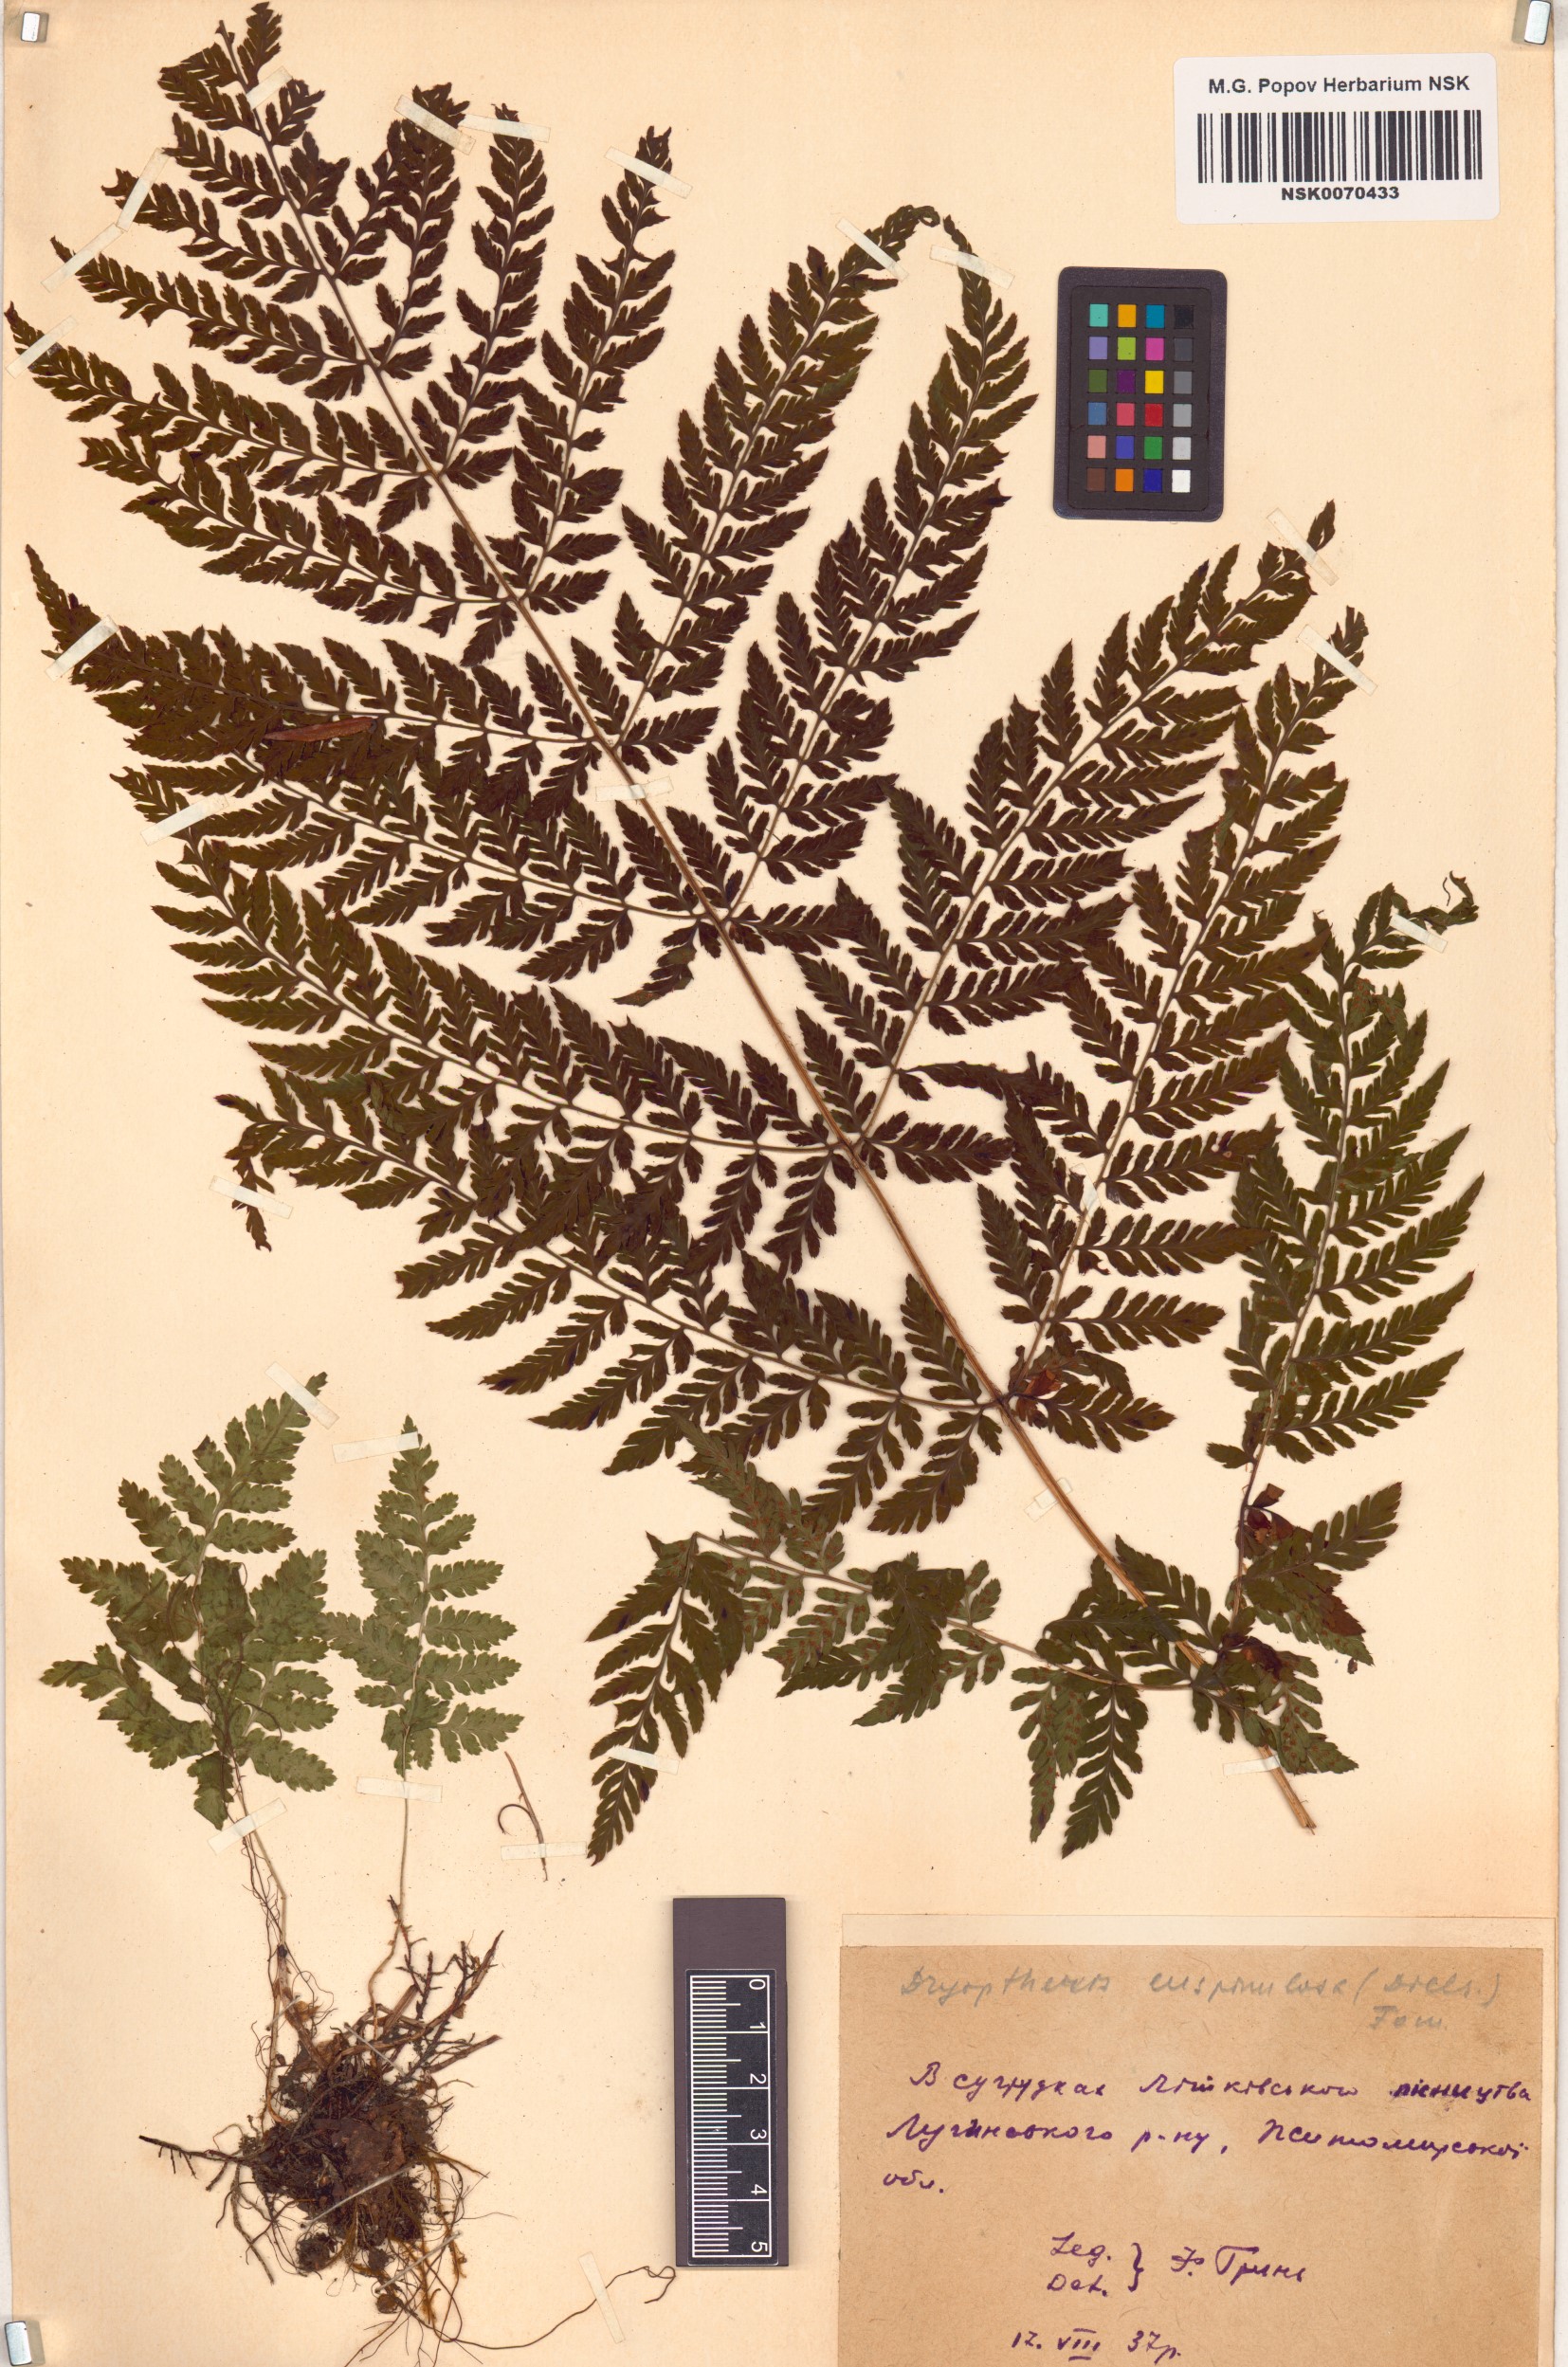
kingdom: Plantae
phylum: Tracheophyta
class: Polypodiopsida
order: Polypodiales
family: Dryopteridaceae
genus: Dryopteris
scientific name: Dryopteris carthusiana
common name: Narrow buckler-fern
